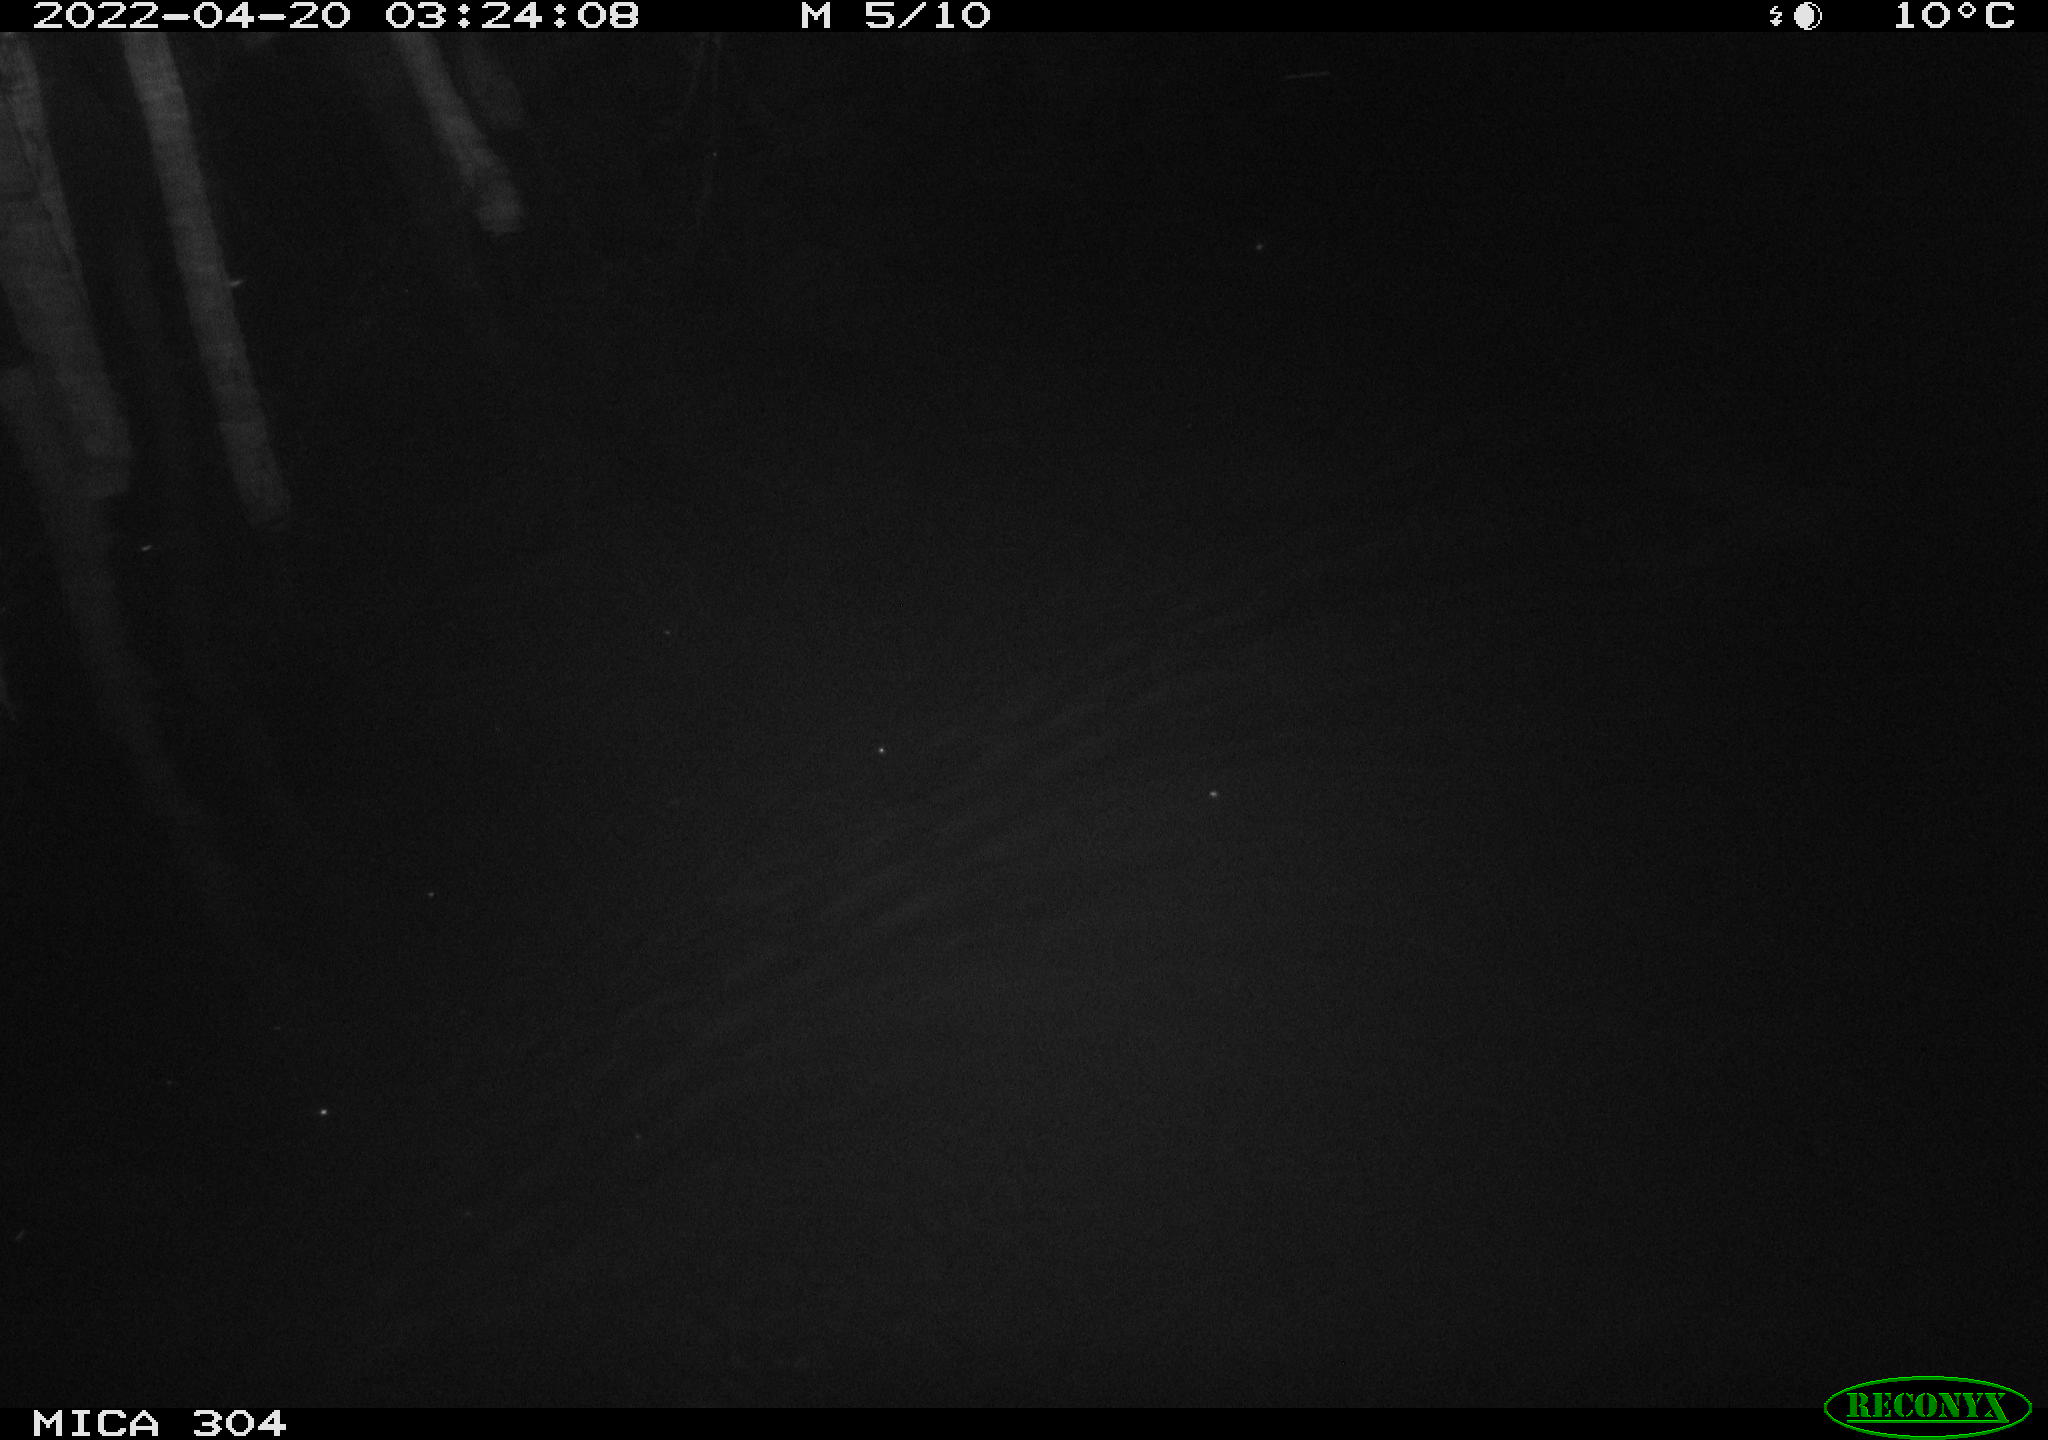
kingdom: Animalia
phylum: Chordata
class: Mammalia
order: Rodentia
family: Muridae
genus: Rattus
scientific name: Rattus norvegicus
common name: Brown rat
